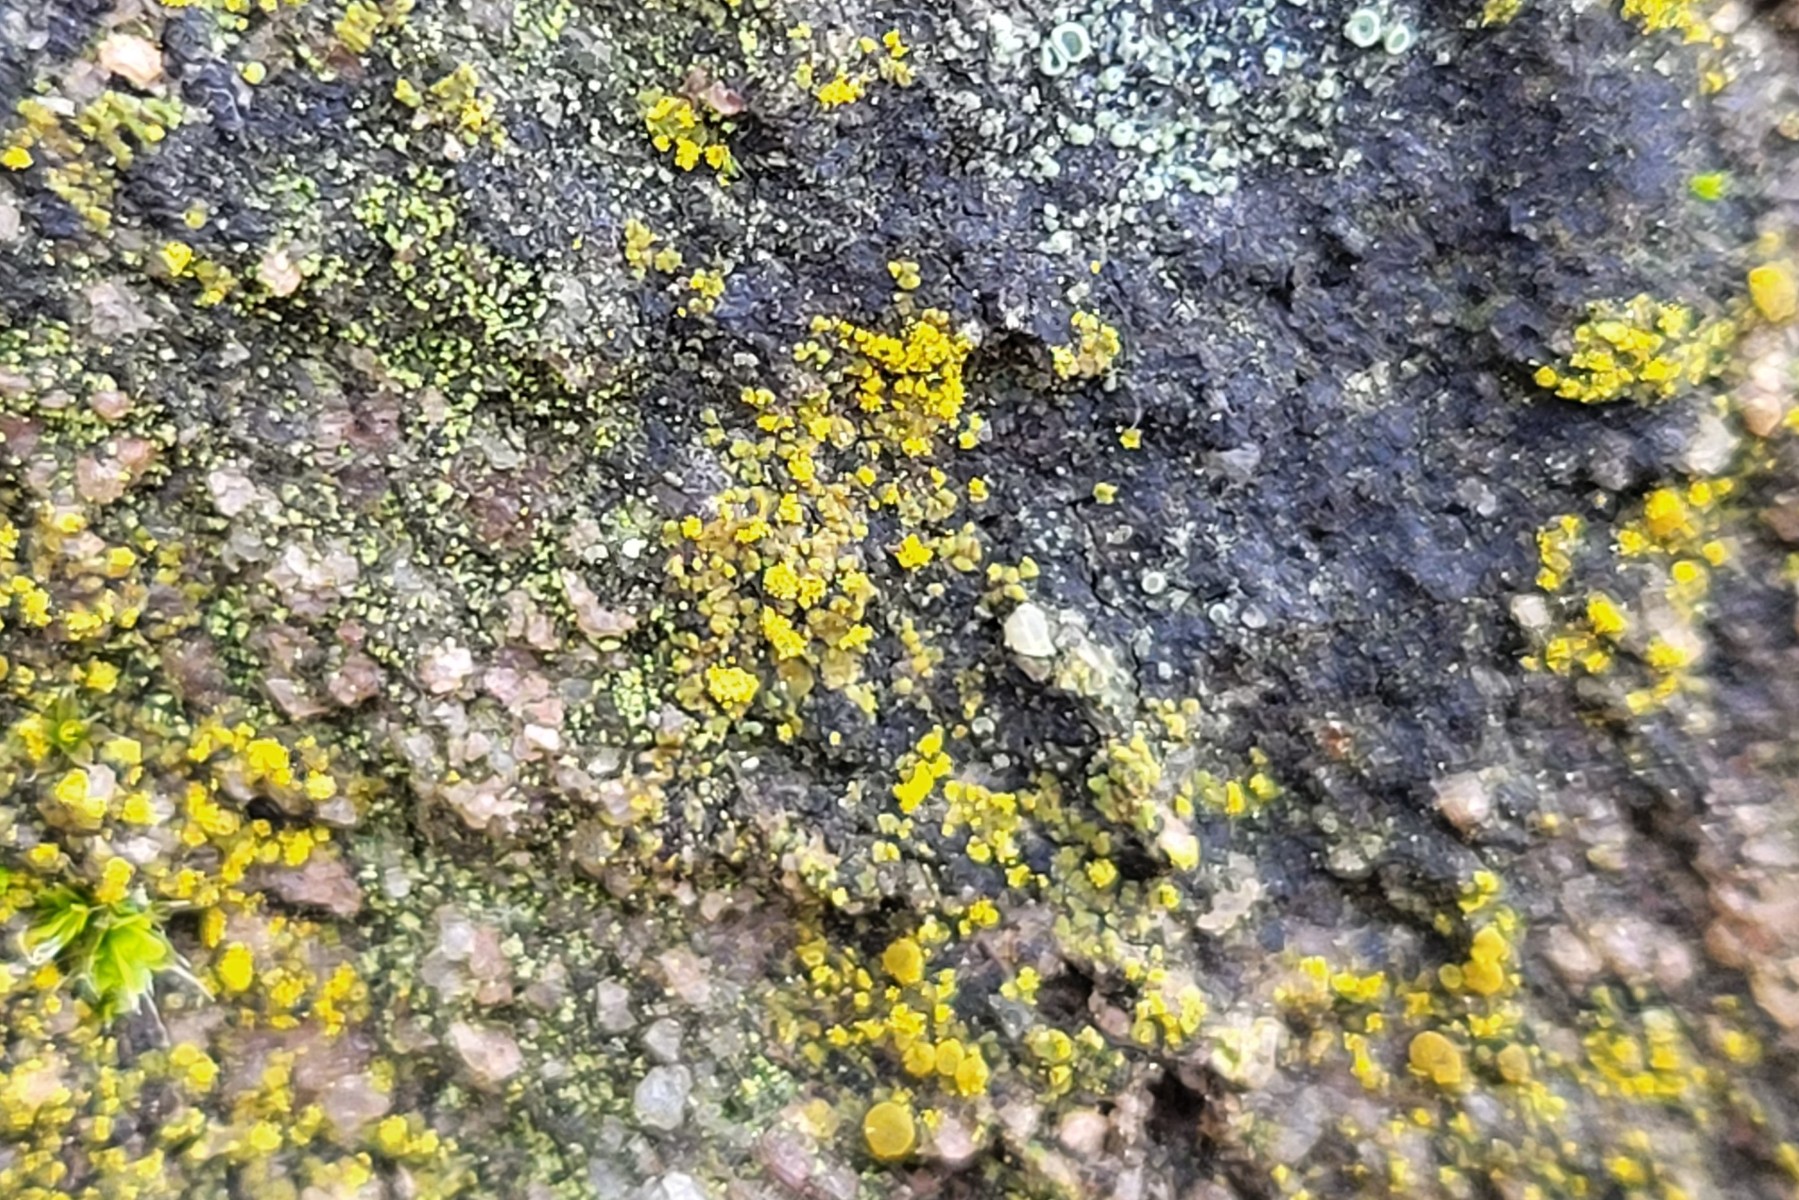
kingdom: Fungi
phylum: Ascomycota
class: Candelariomycetes
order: Candelariales
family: Candelariaceae
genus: Candelariella
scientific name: Candelariella aurella
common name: liden æggeblommelav
